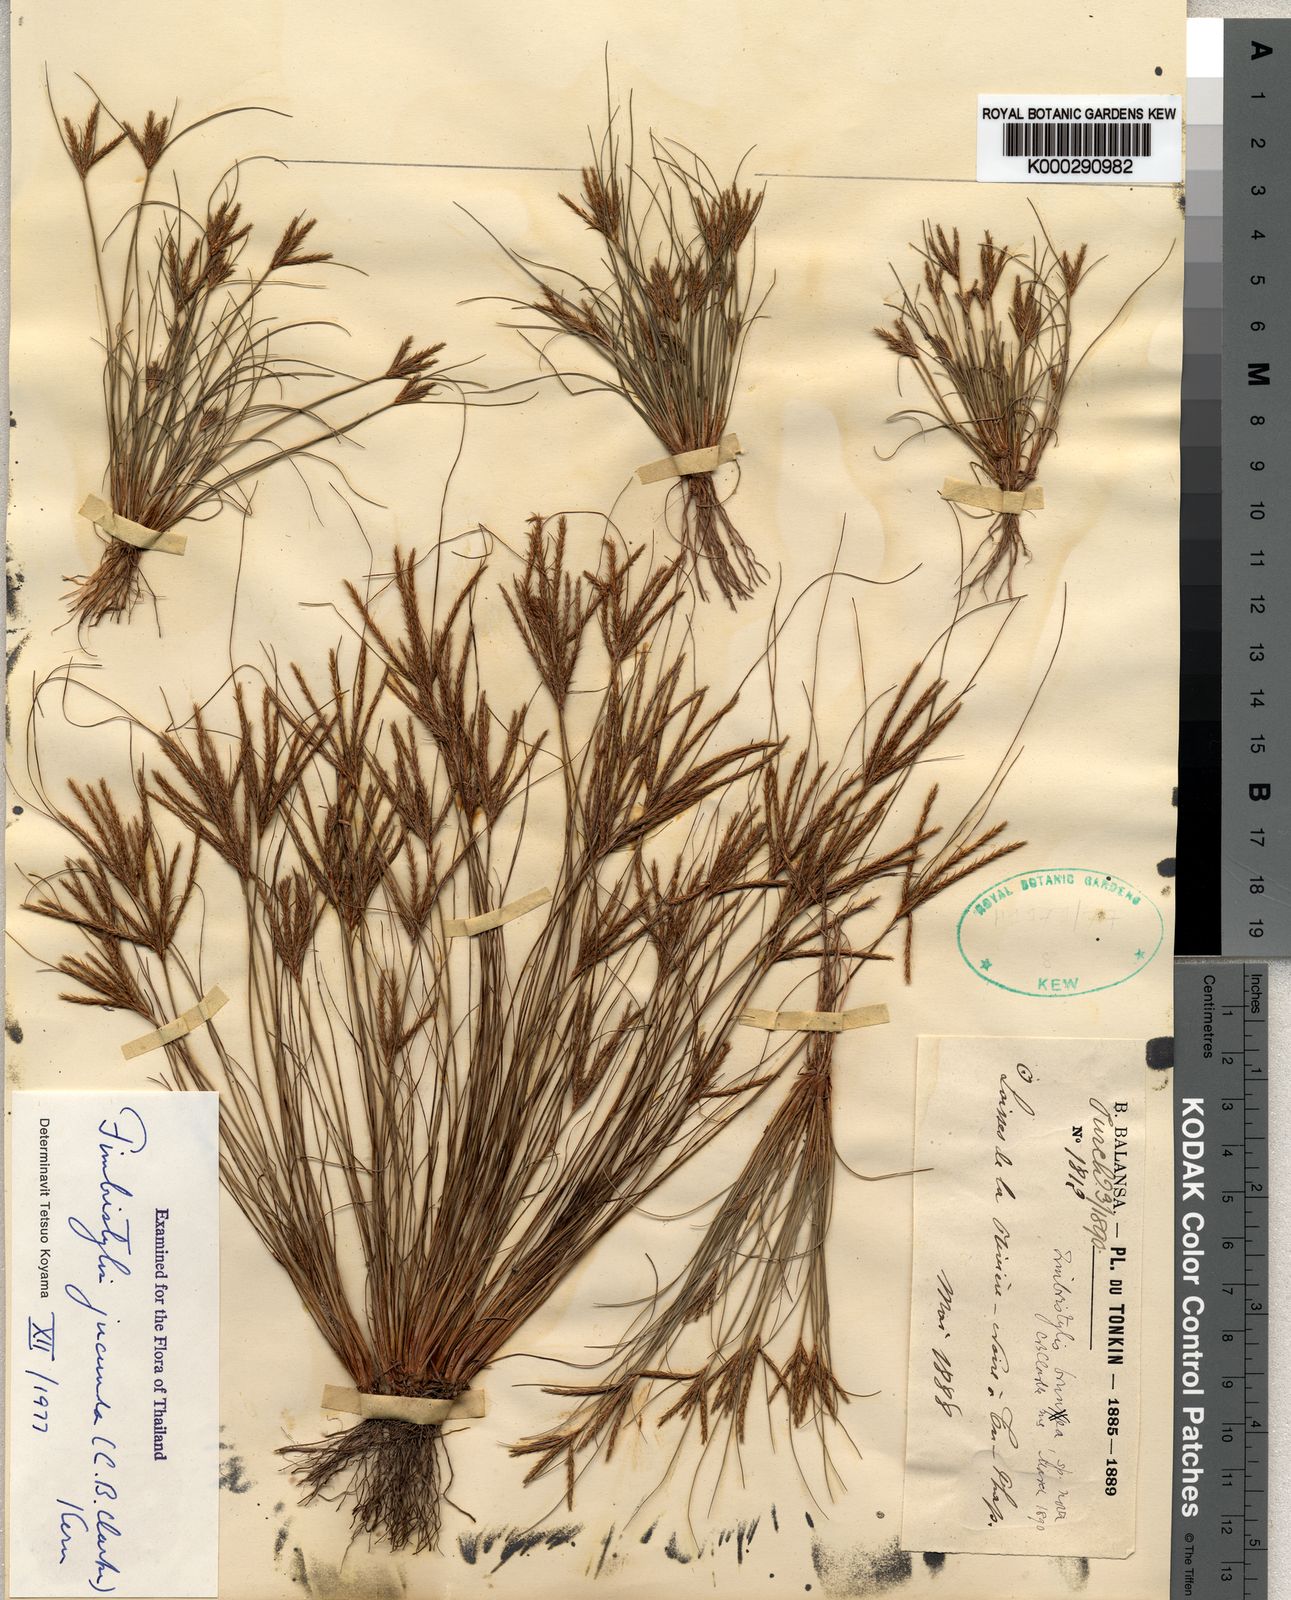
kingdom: Plantae
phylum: Tracheophyta
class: Liliopsida
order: Poales
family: Cyperaceae
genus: Fimbristylis
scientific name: Fimbristylis jucunda
